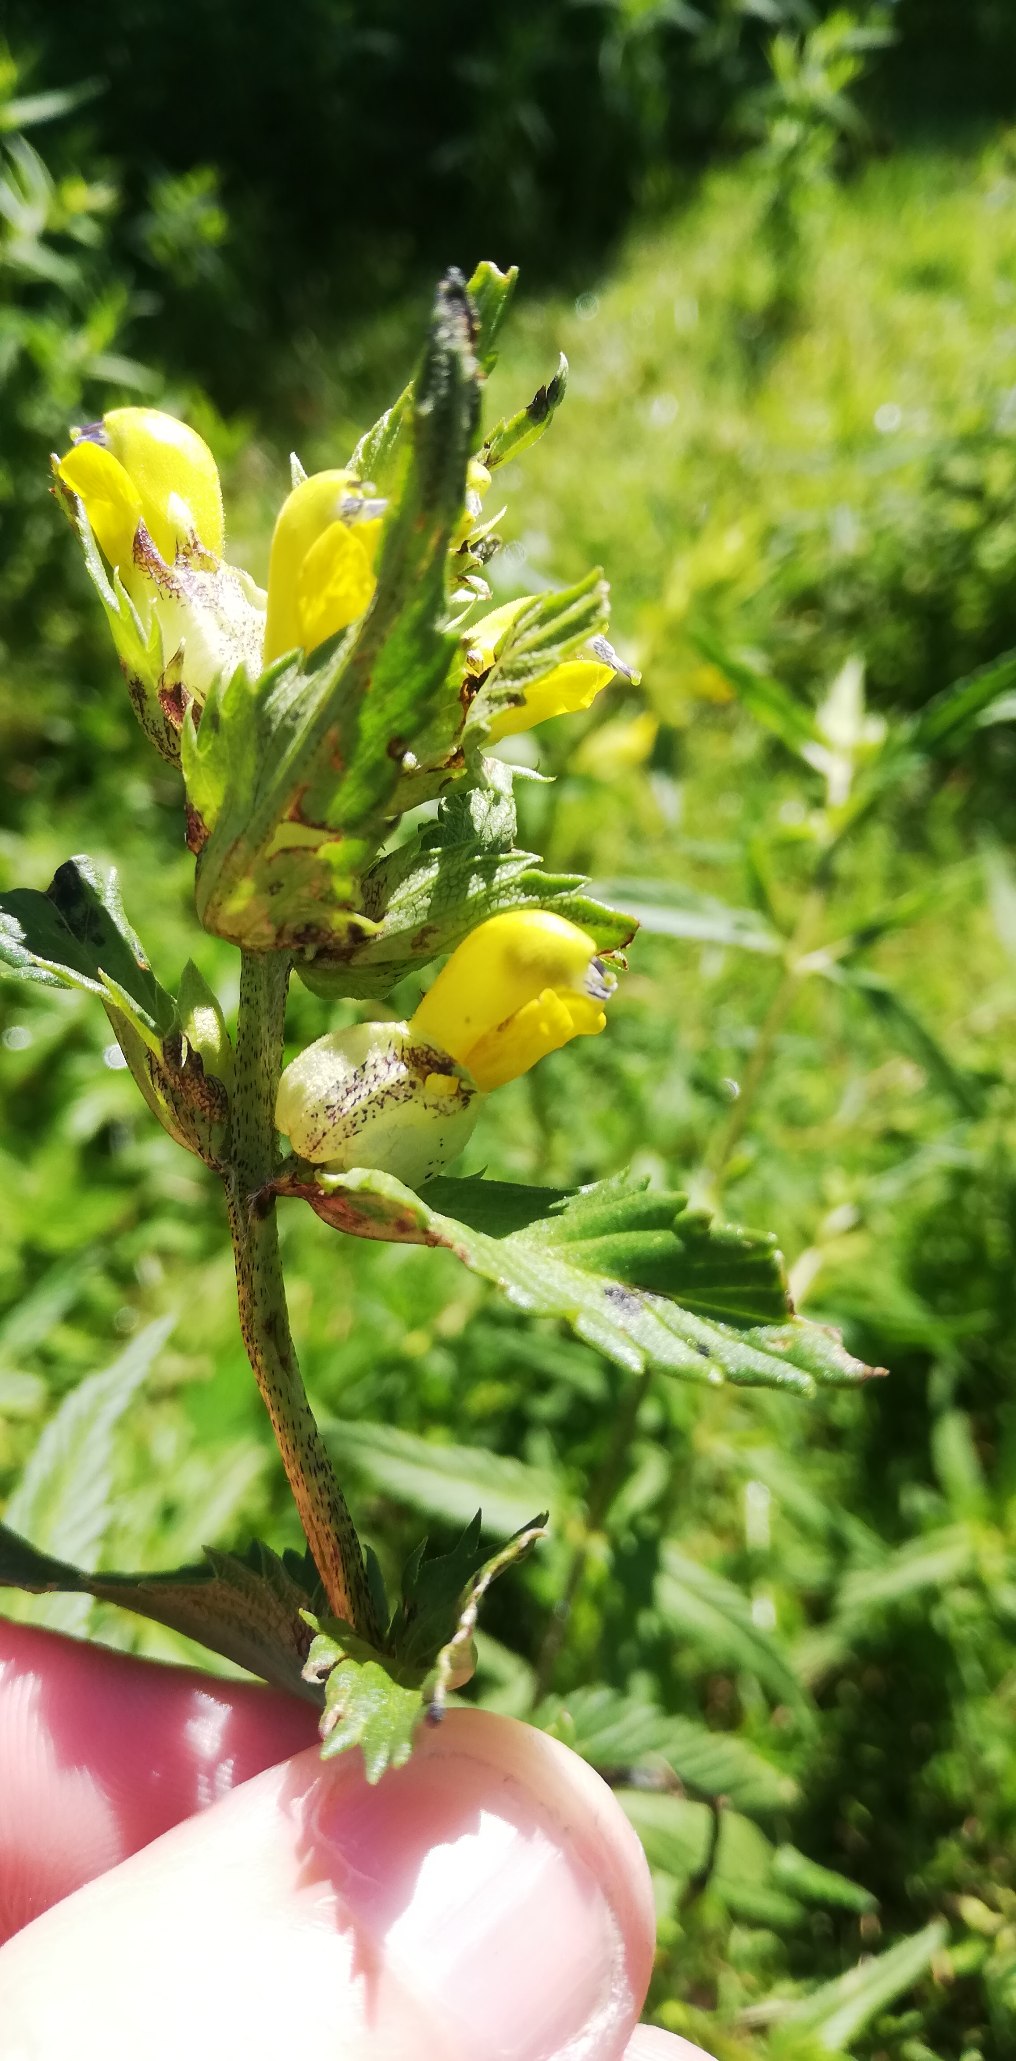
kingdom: Plantae
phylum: Tracheophyta
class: Magnoliopsida
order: Lamiales
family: Orobanchaceae
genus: Rhinanthus
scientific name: Rhinanthus
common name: Stor skjaller
